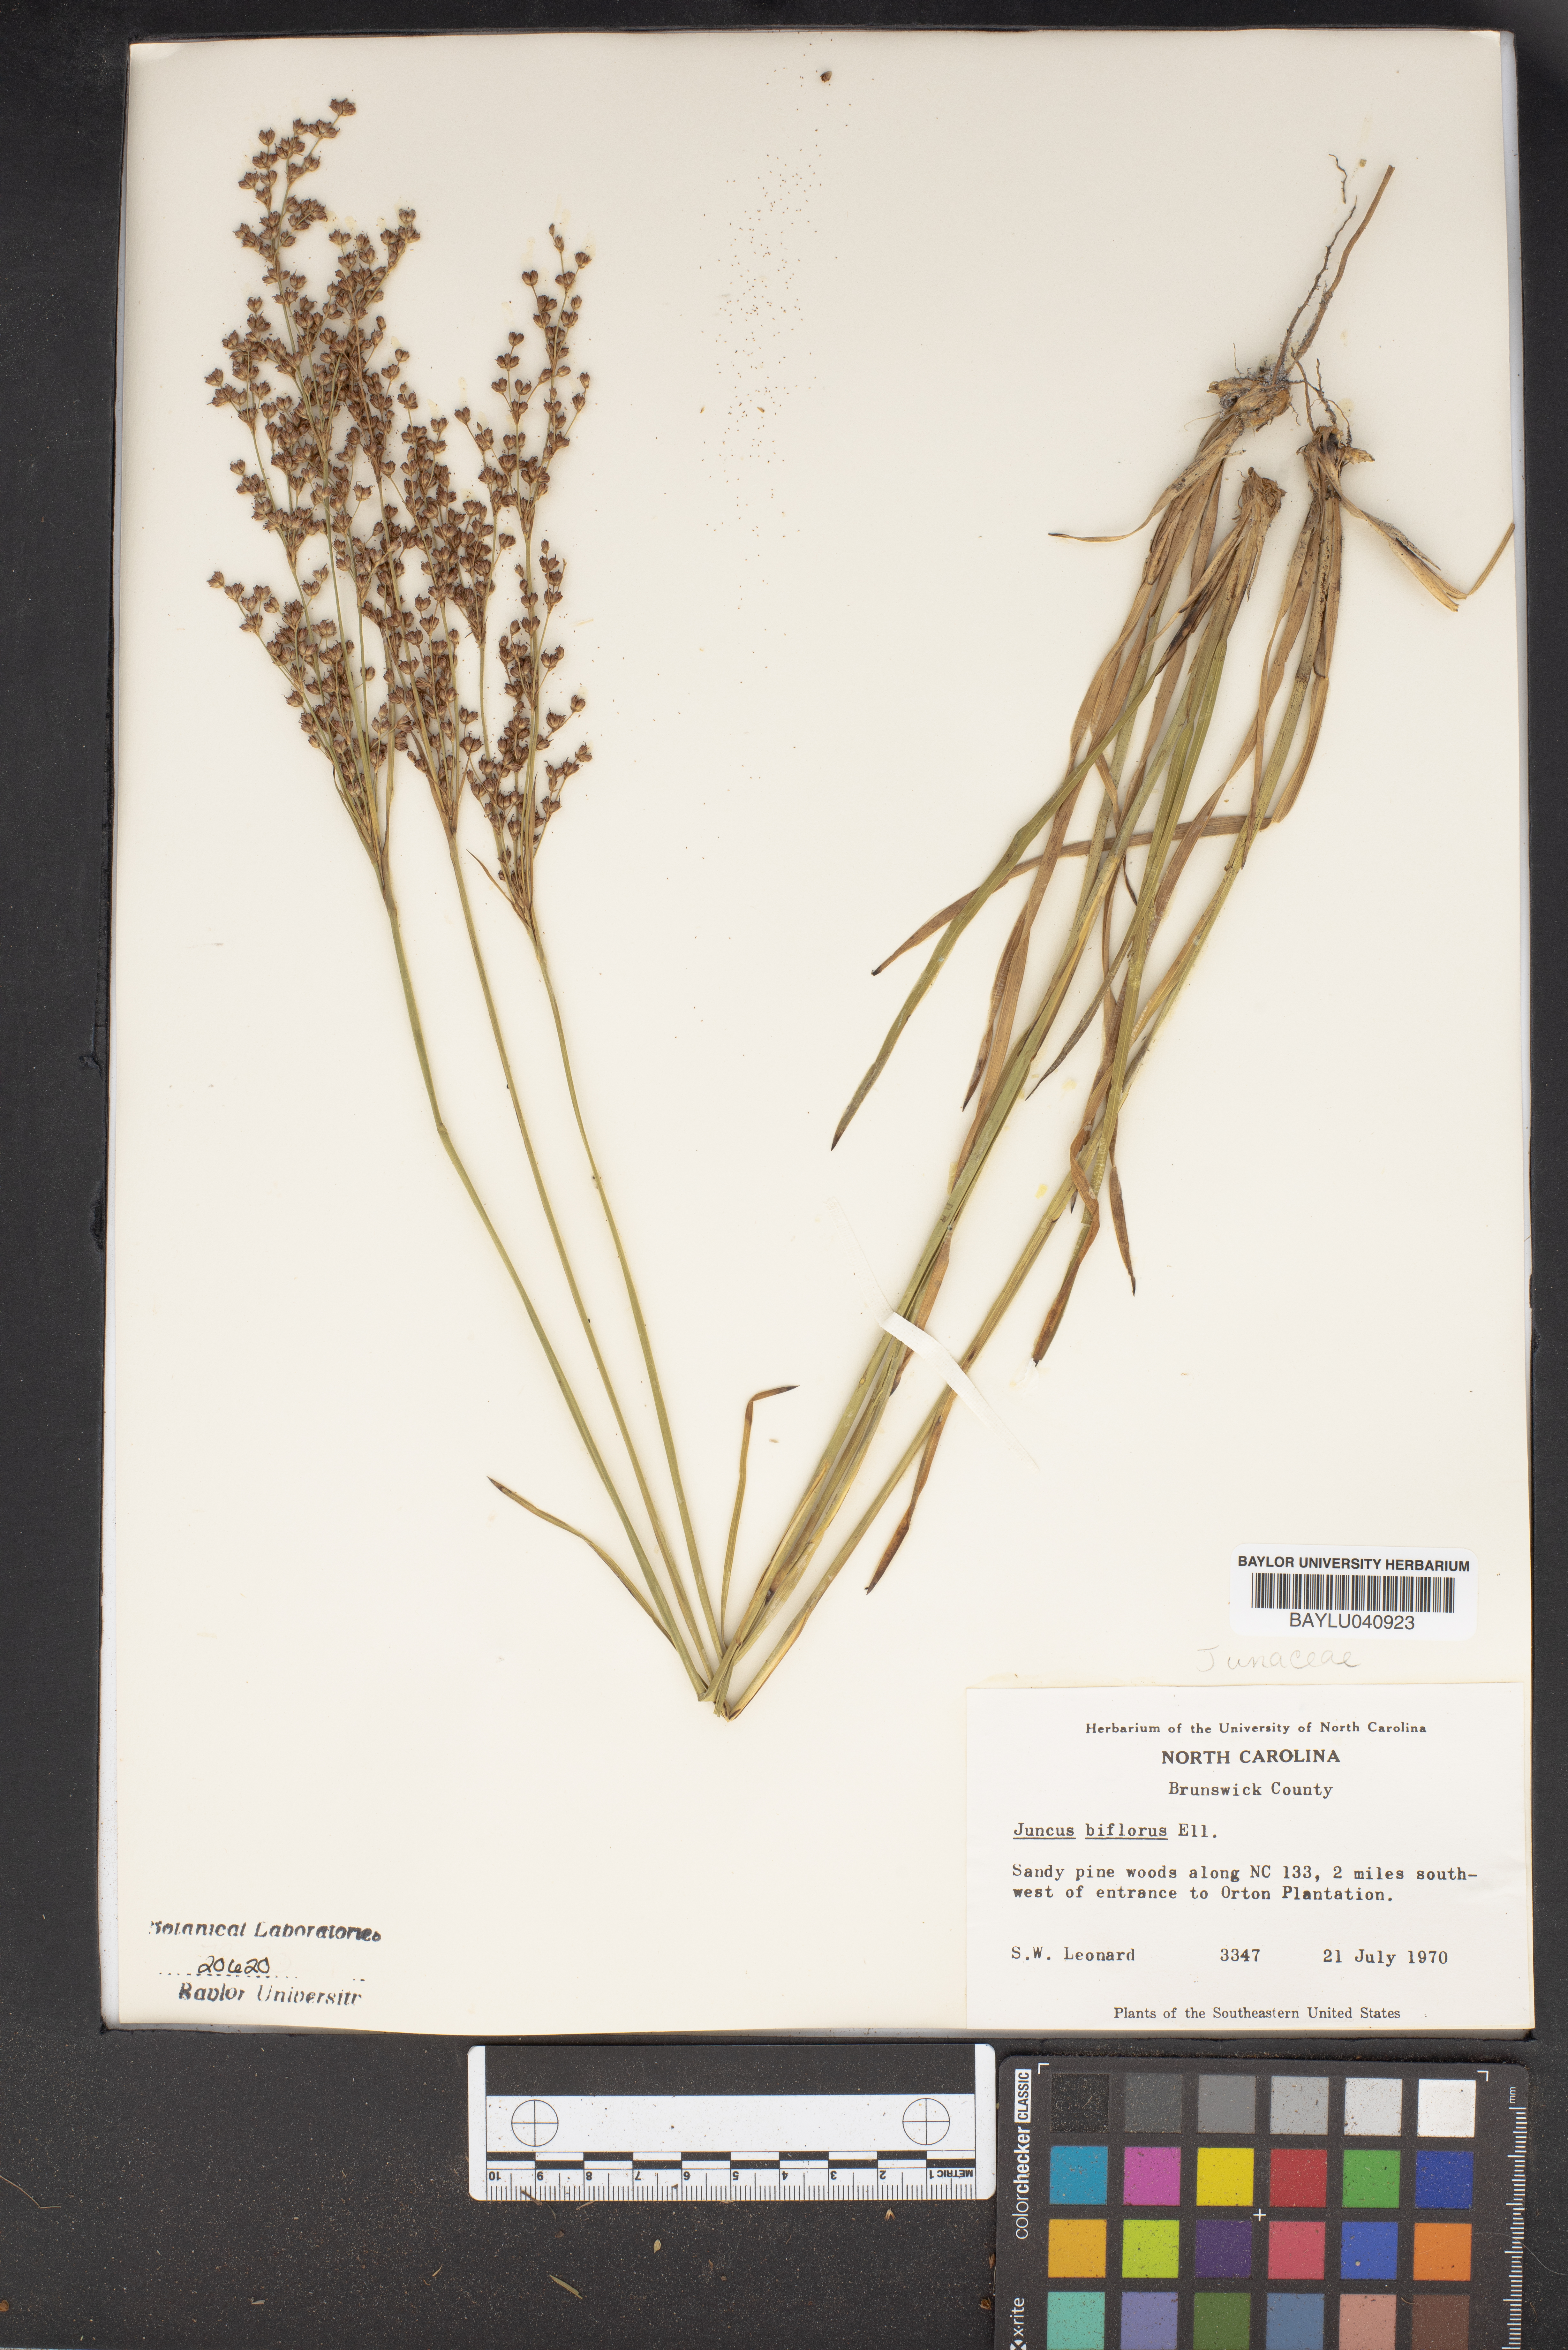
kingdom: Plantae
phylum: Tracheophyta
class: Liliopsida
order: Poales
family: Juncaceae
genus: Juncus
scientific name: Juncus biflorus
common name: Two-flowered rush
